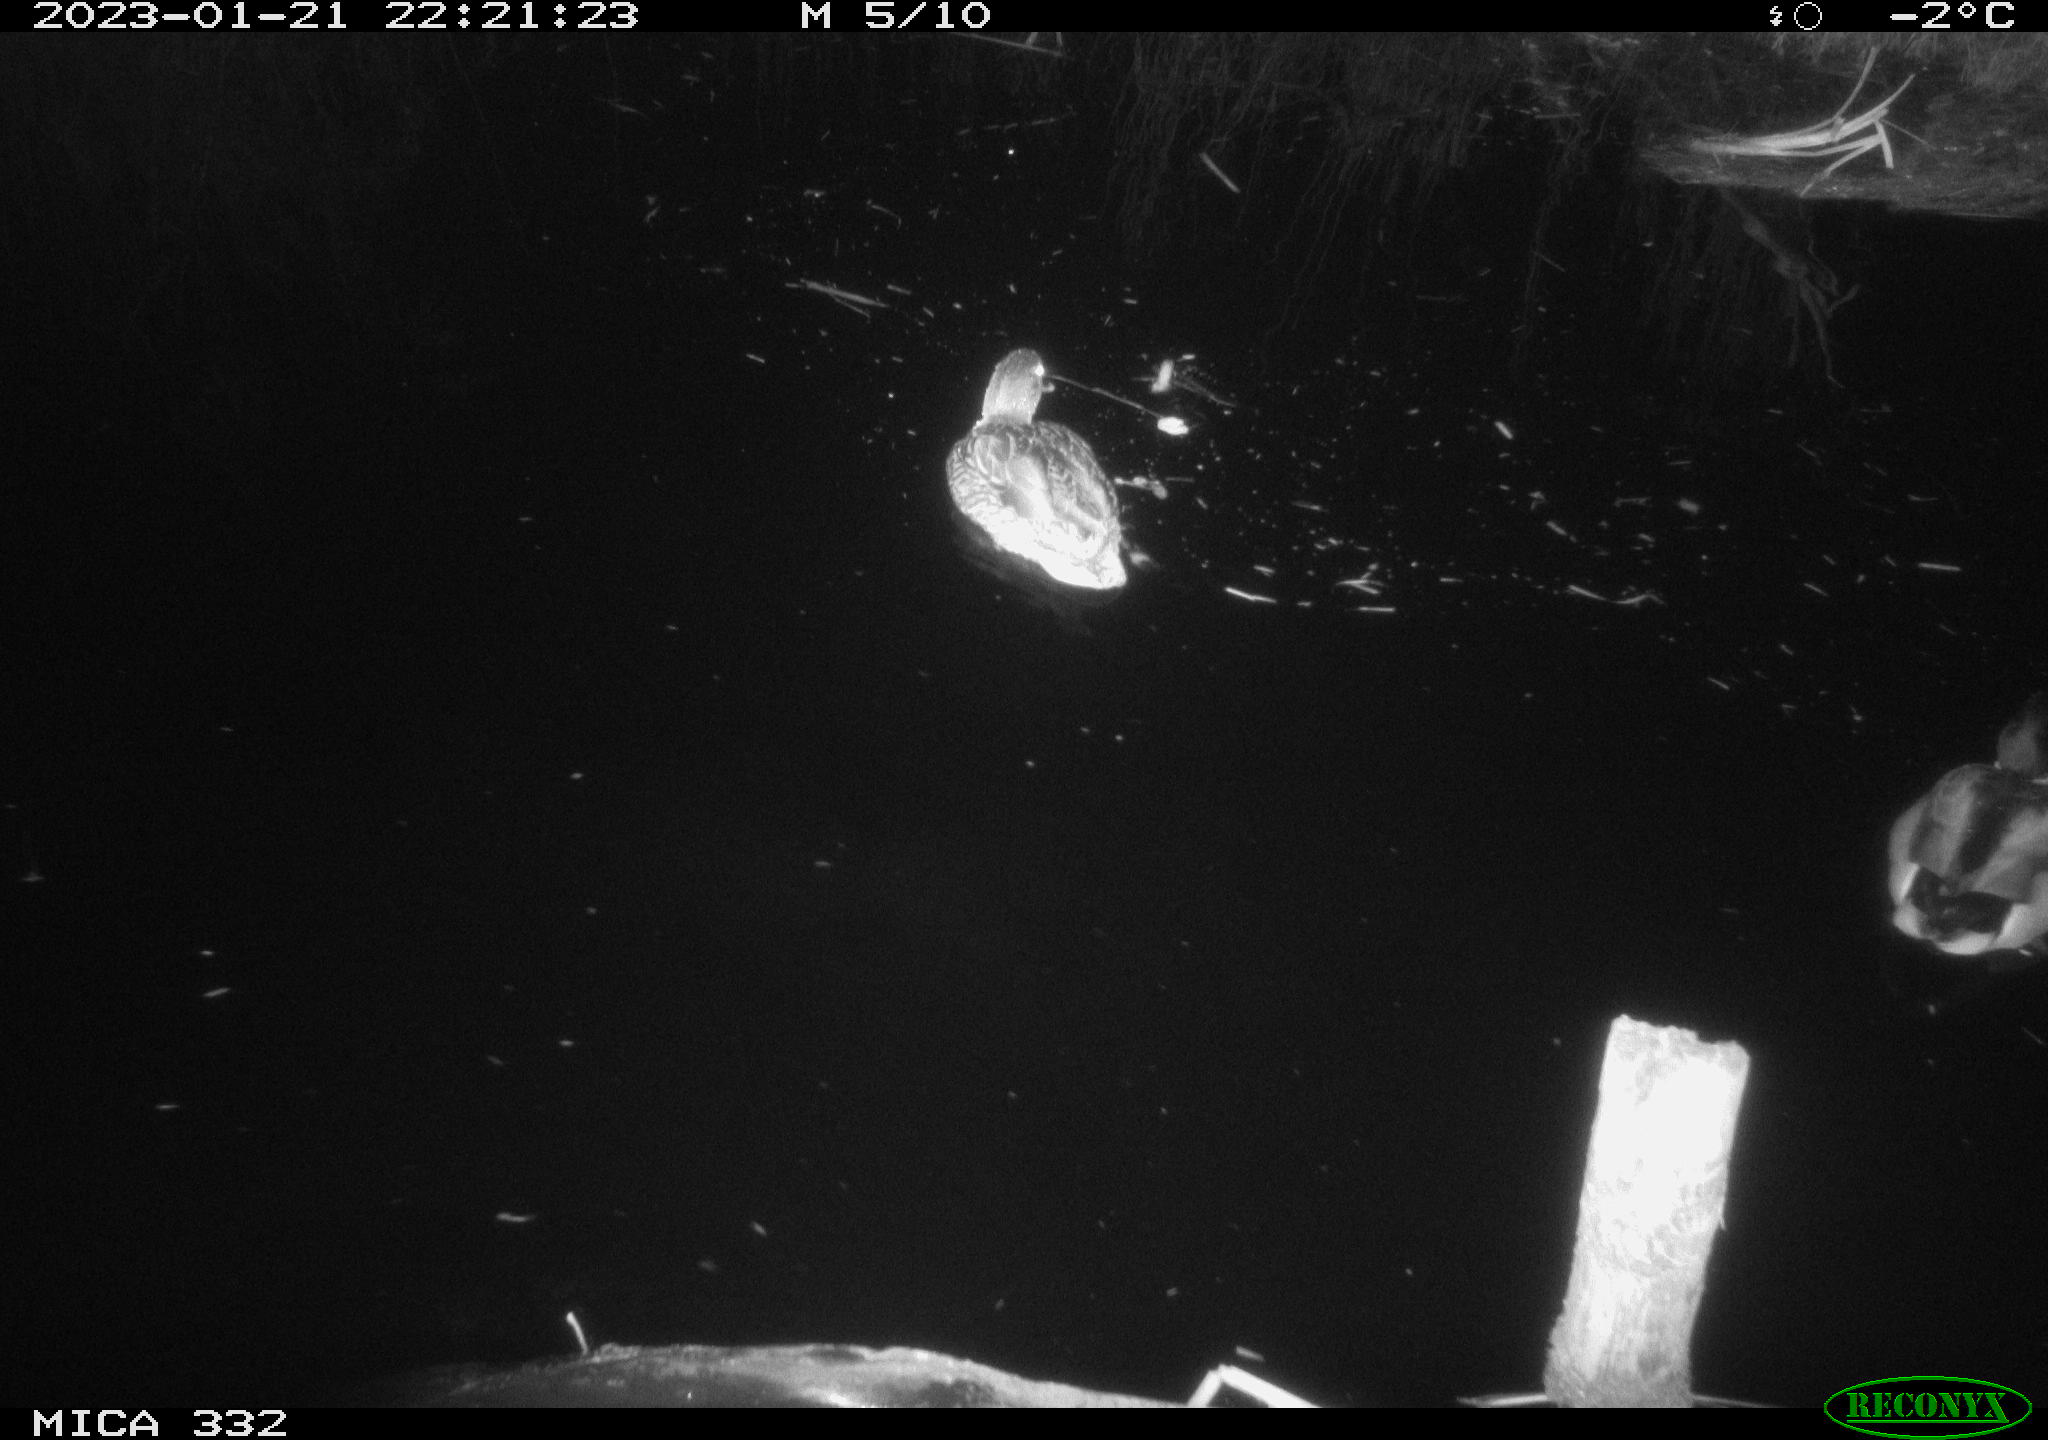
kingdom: Animalia
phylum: Chordata
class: Aves
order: Anseriformes
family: Anatidae
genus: Anas
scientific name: Anas
